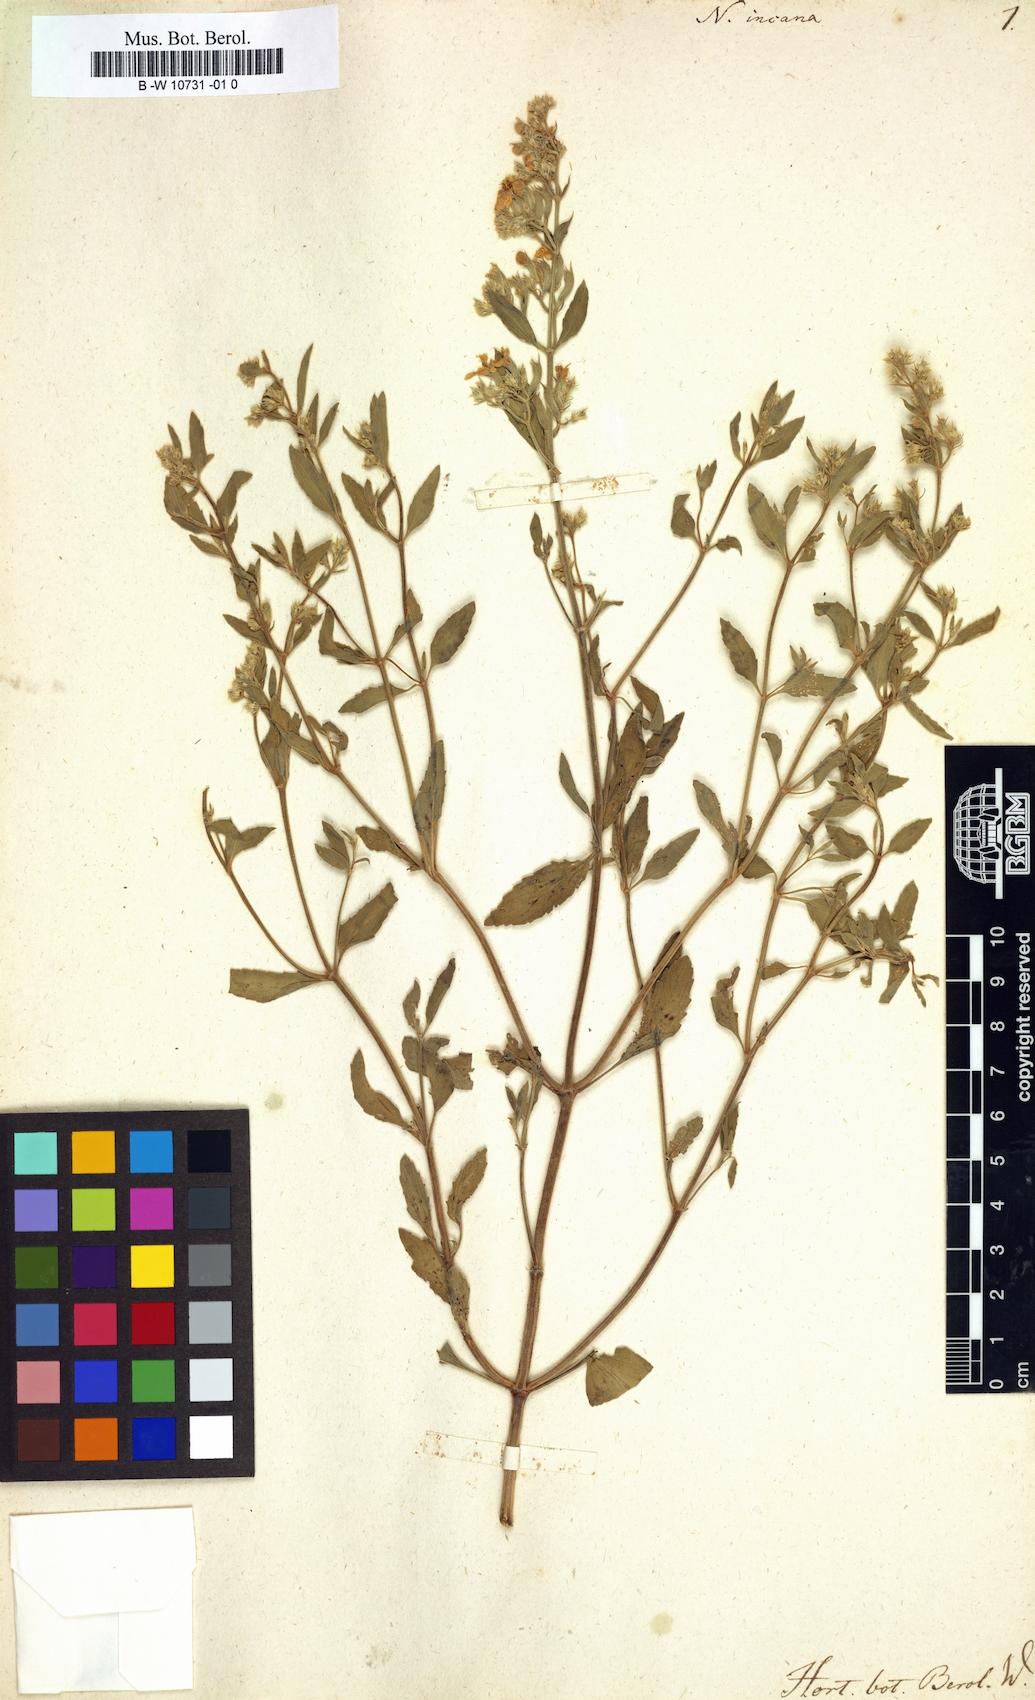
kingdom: Plantae
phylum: Tracheophyta
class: Magnoliopsida
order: Lamiales
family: Lamiaceae
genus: Nepeta
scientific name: Nepeta italica
